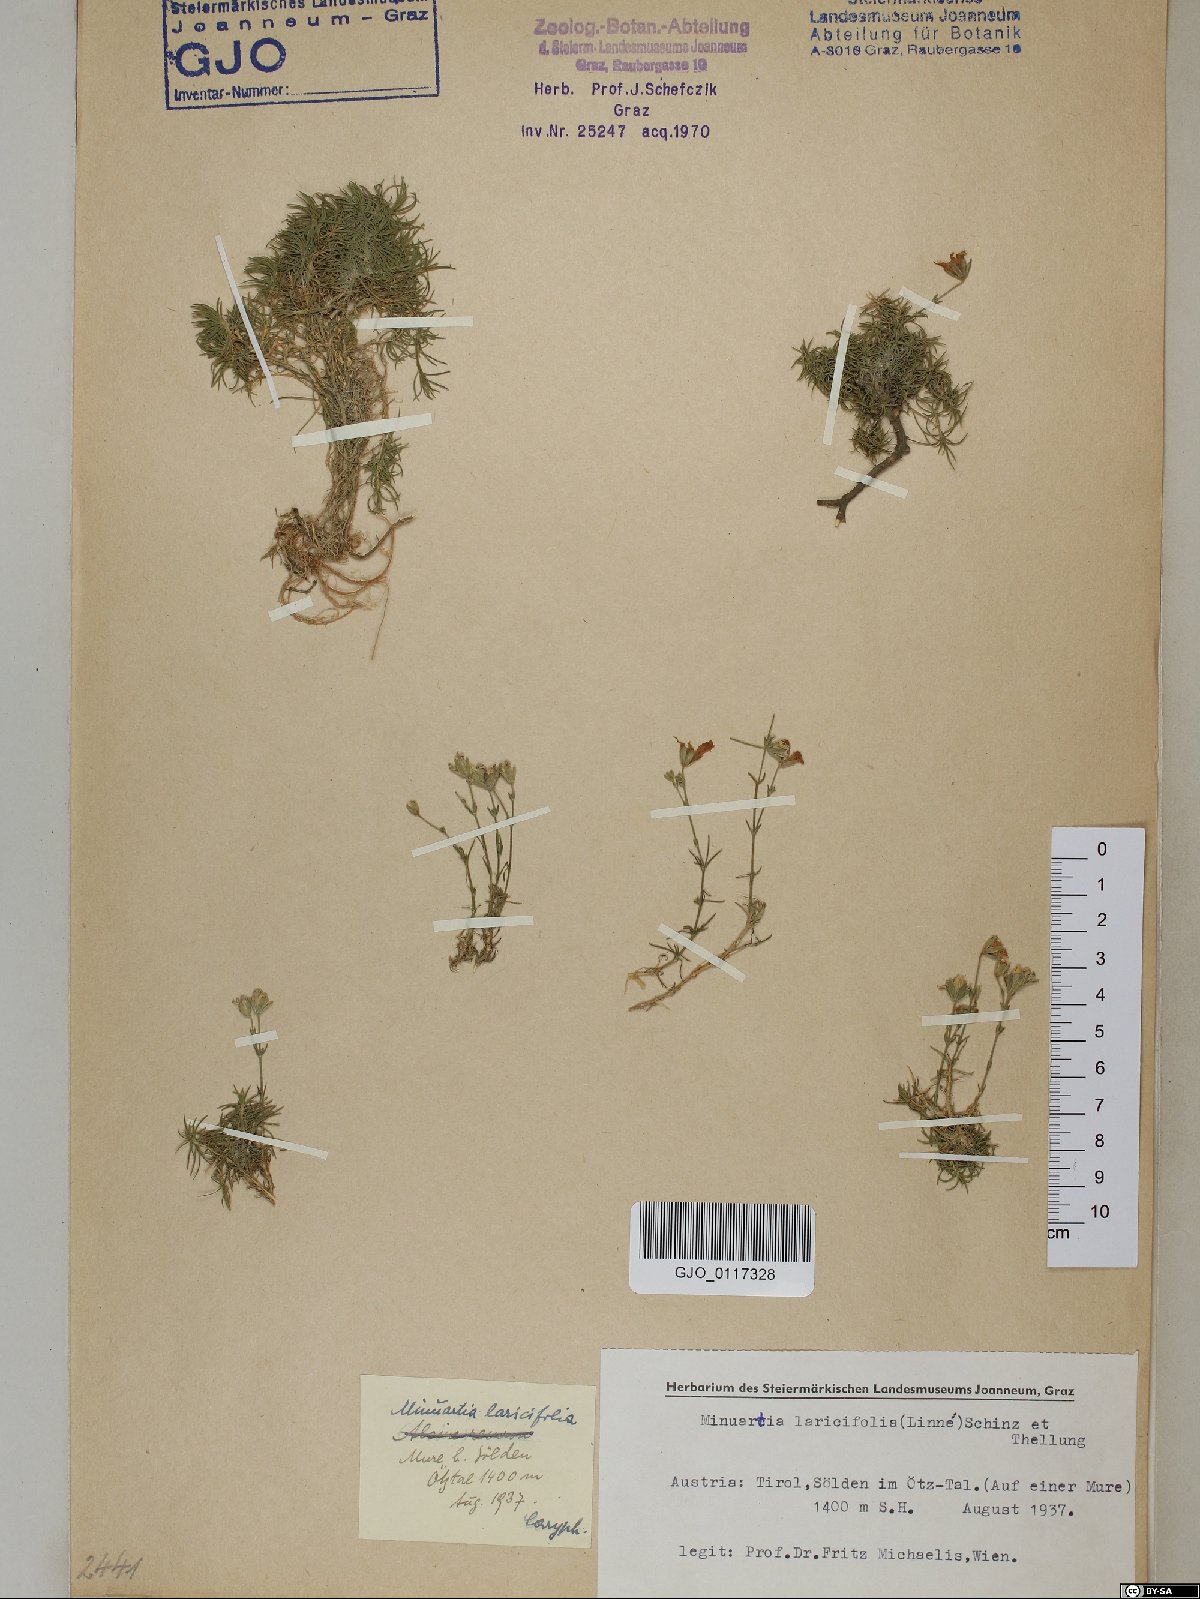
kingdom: Plantae
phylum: Tracheophyta
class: Magnoliopsida
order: Caryophyllales
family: Caryophyllaceae
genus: Cherleria
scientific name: Cherleria laricifolia
